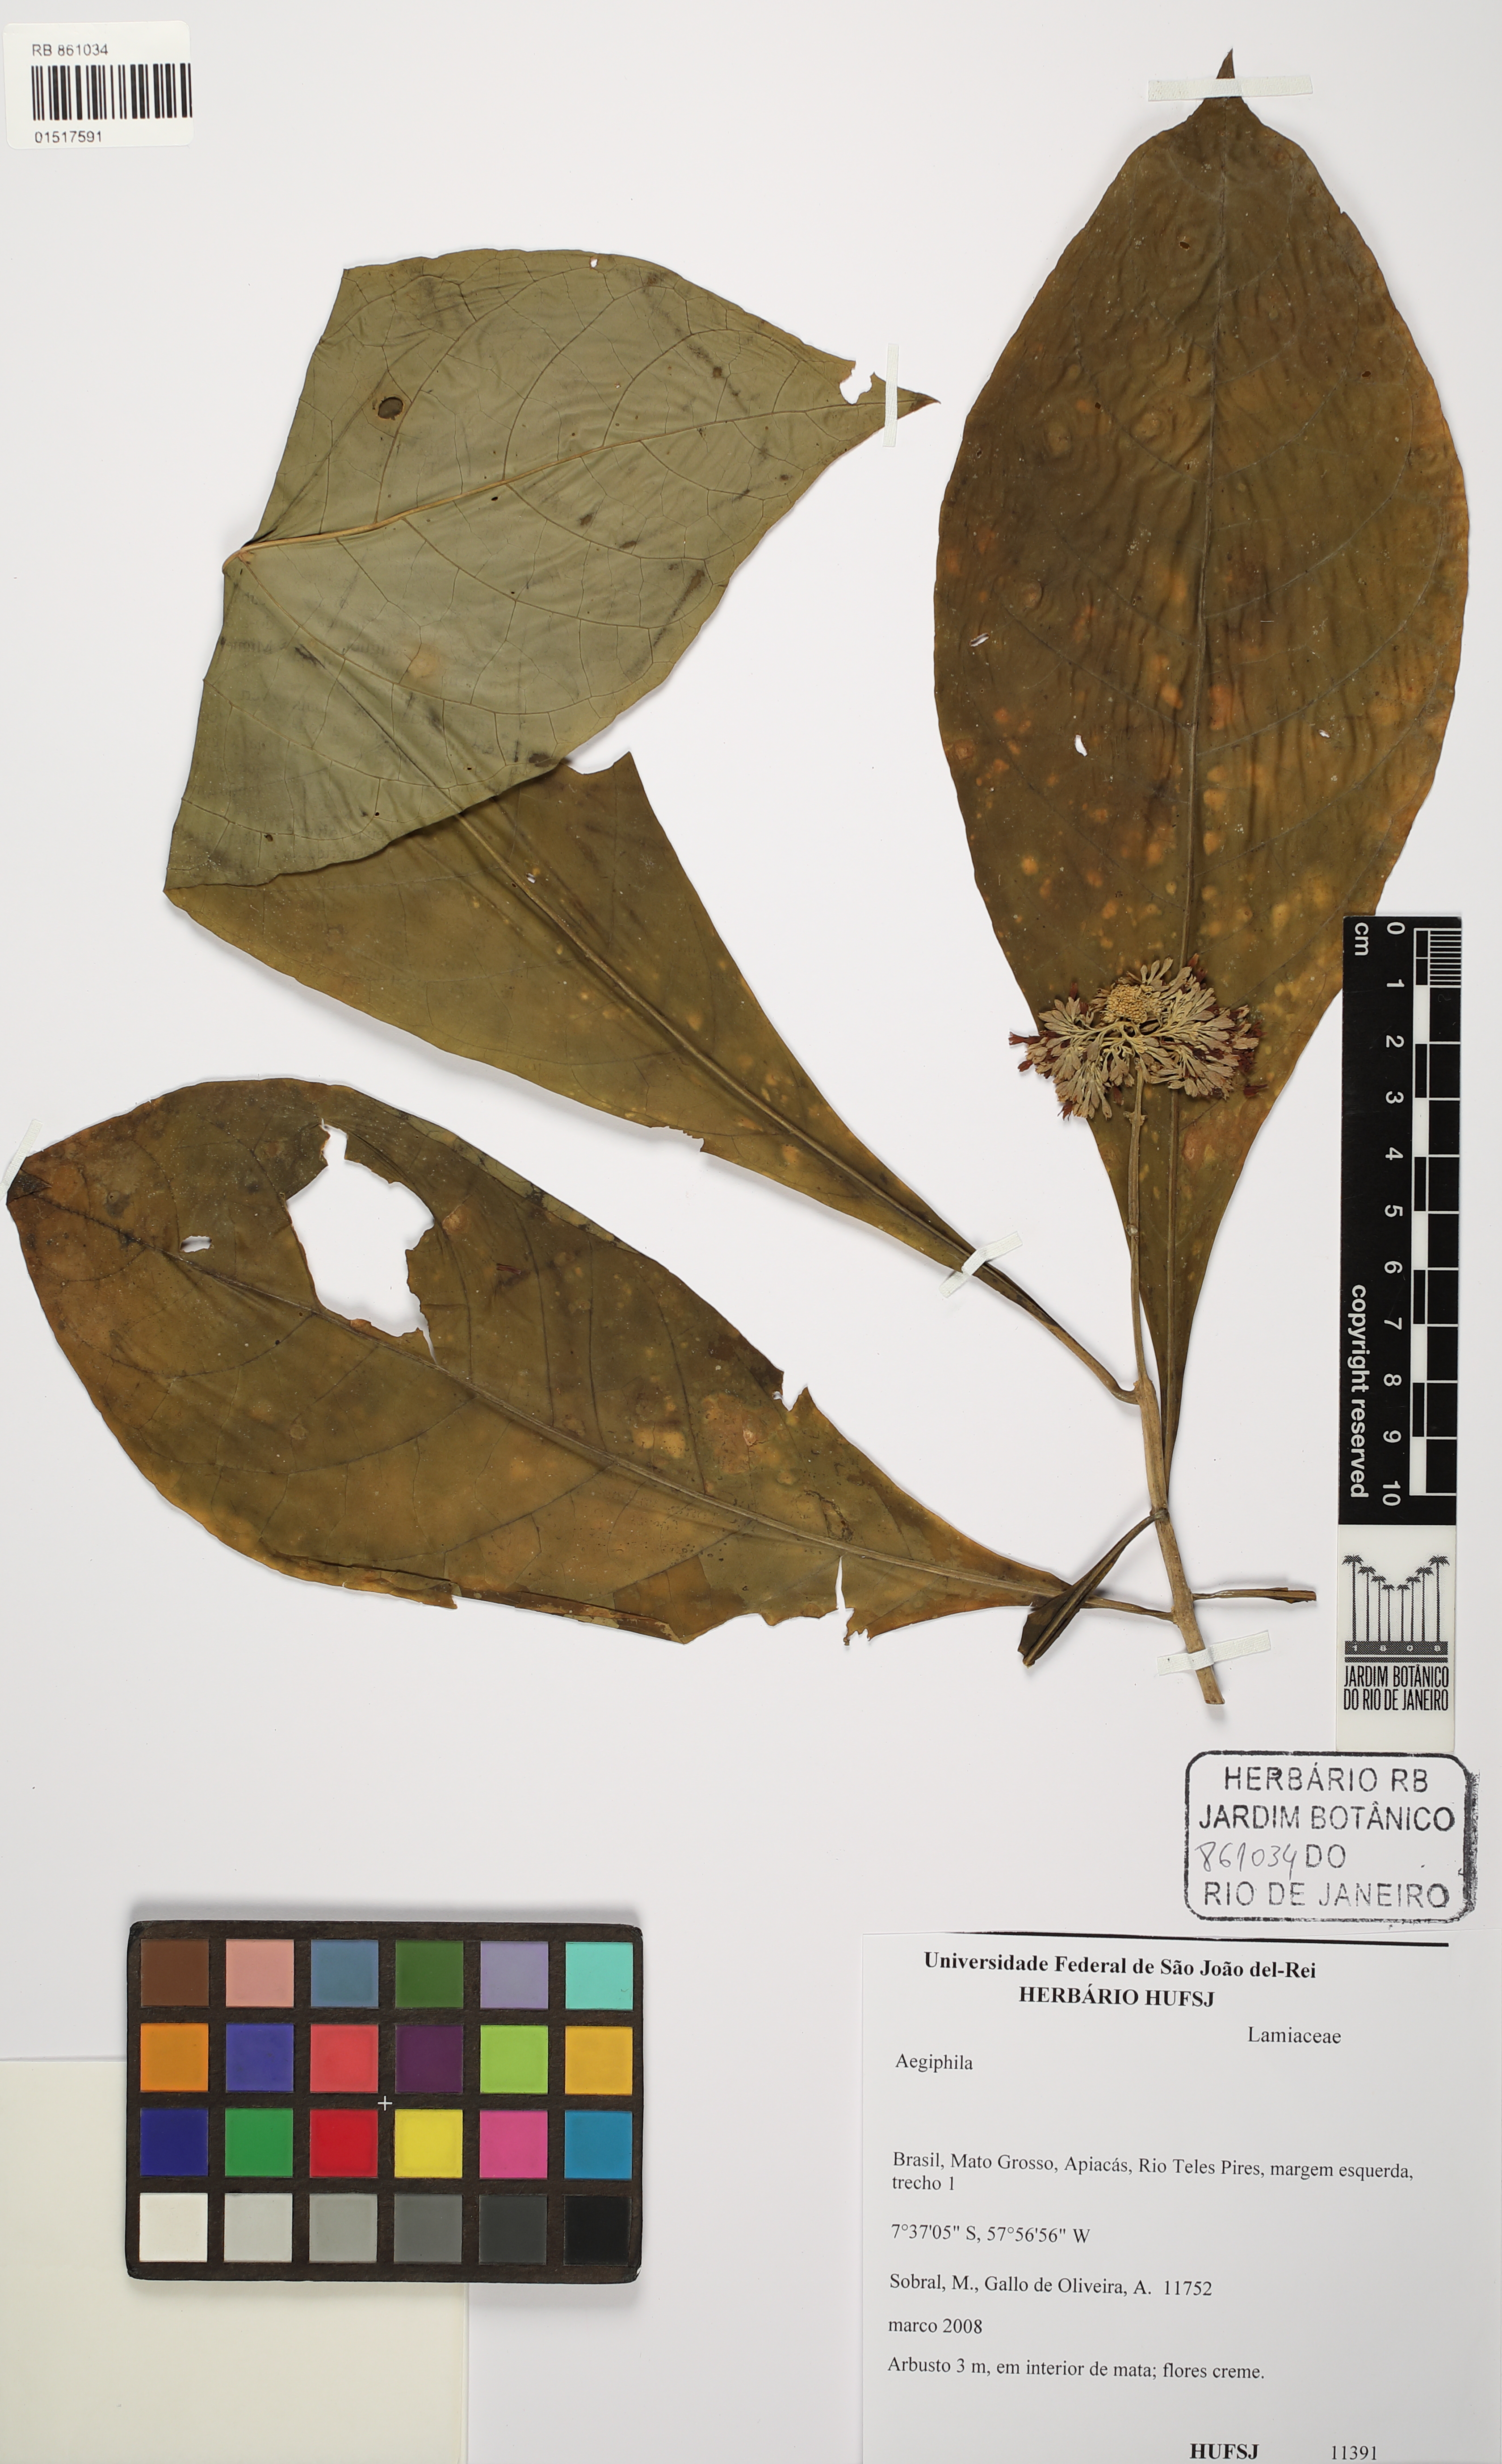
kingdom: Plantae
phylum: Tracheophyta
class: Magnoliopsida
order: Lamiales
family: Lamiaceae
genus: Aegiphila
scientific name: Aegiphila
